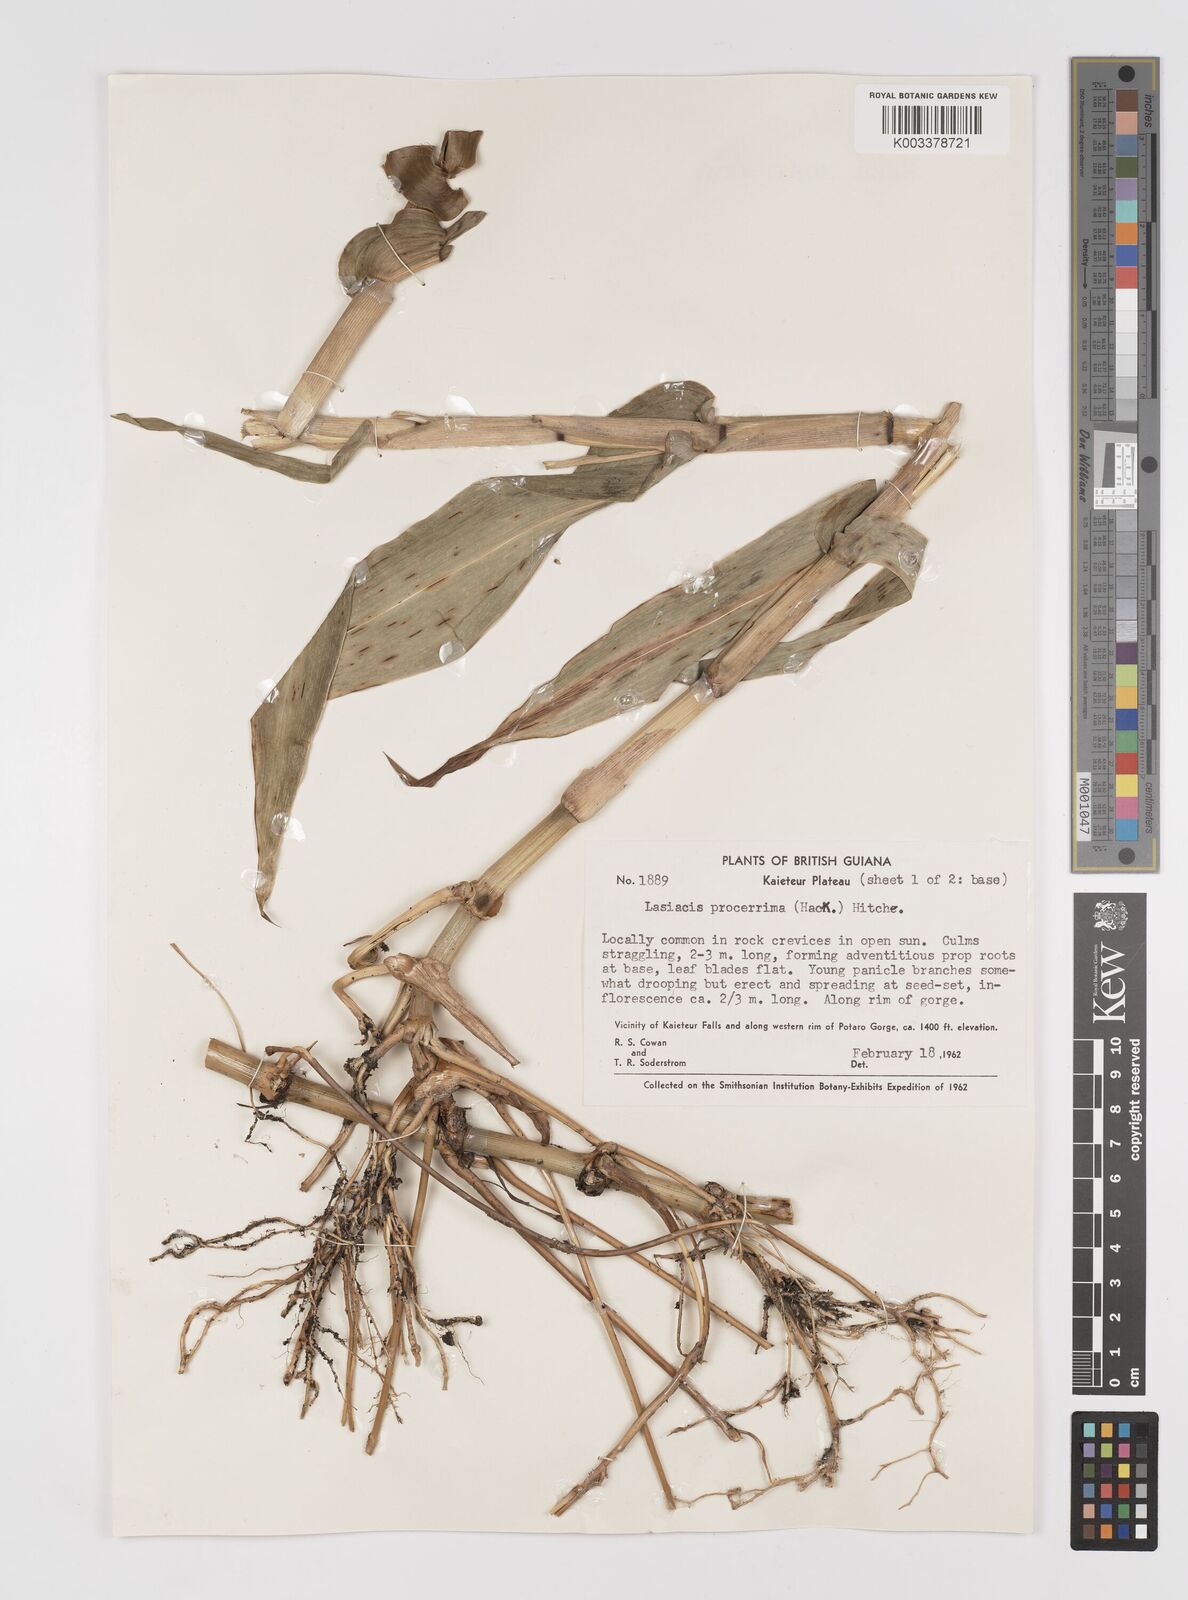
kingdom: Plantae
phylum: Tracheophyta
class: Liliopsida
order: Poales
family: Poaceae
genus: Lasiacis
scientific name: Lasiacis procerrima
